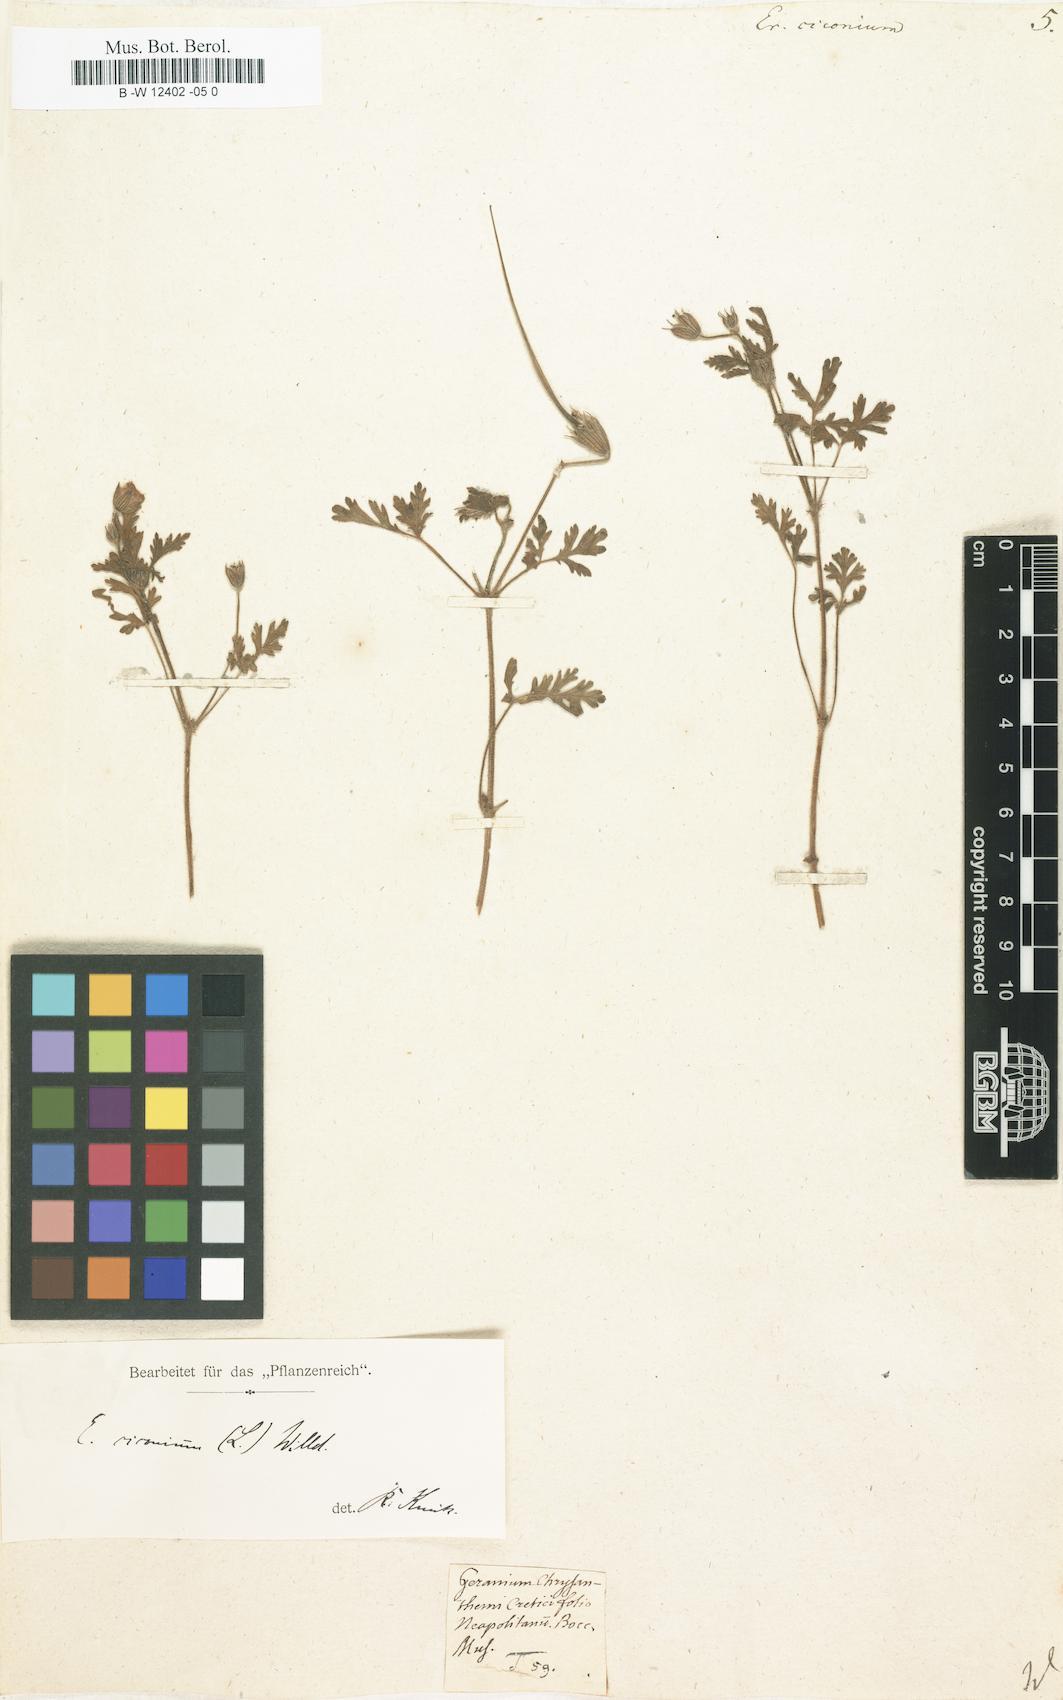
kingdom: Plantae
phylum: Tracheophyta
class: Magnoliopsida
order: Geraniales
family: Geraniaceae
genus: Erodium
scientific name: Erodium ciconium
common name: Common stork's bill
